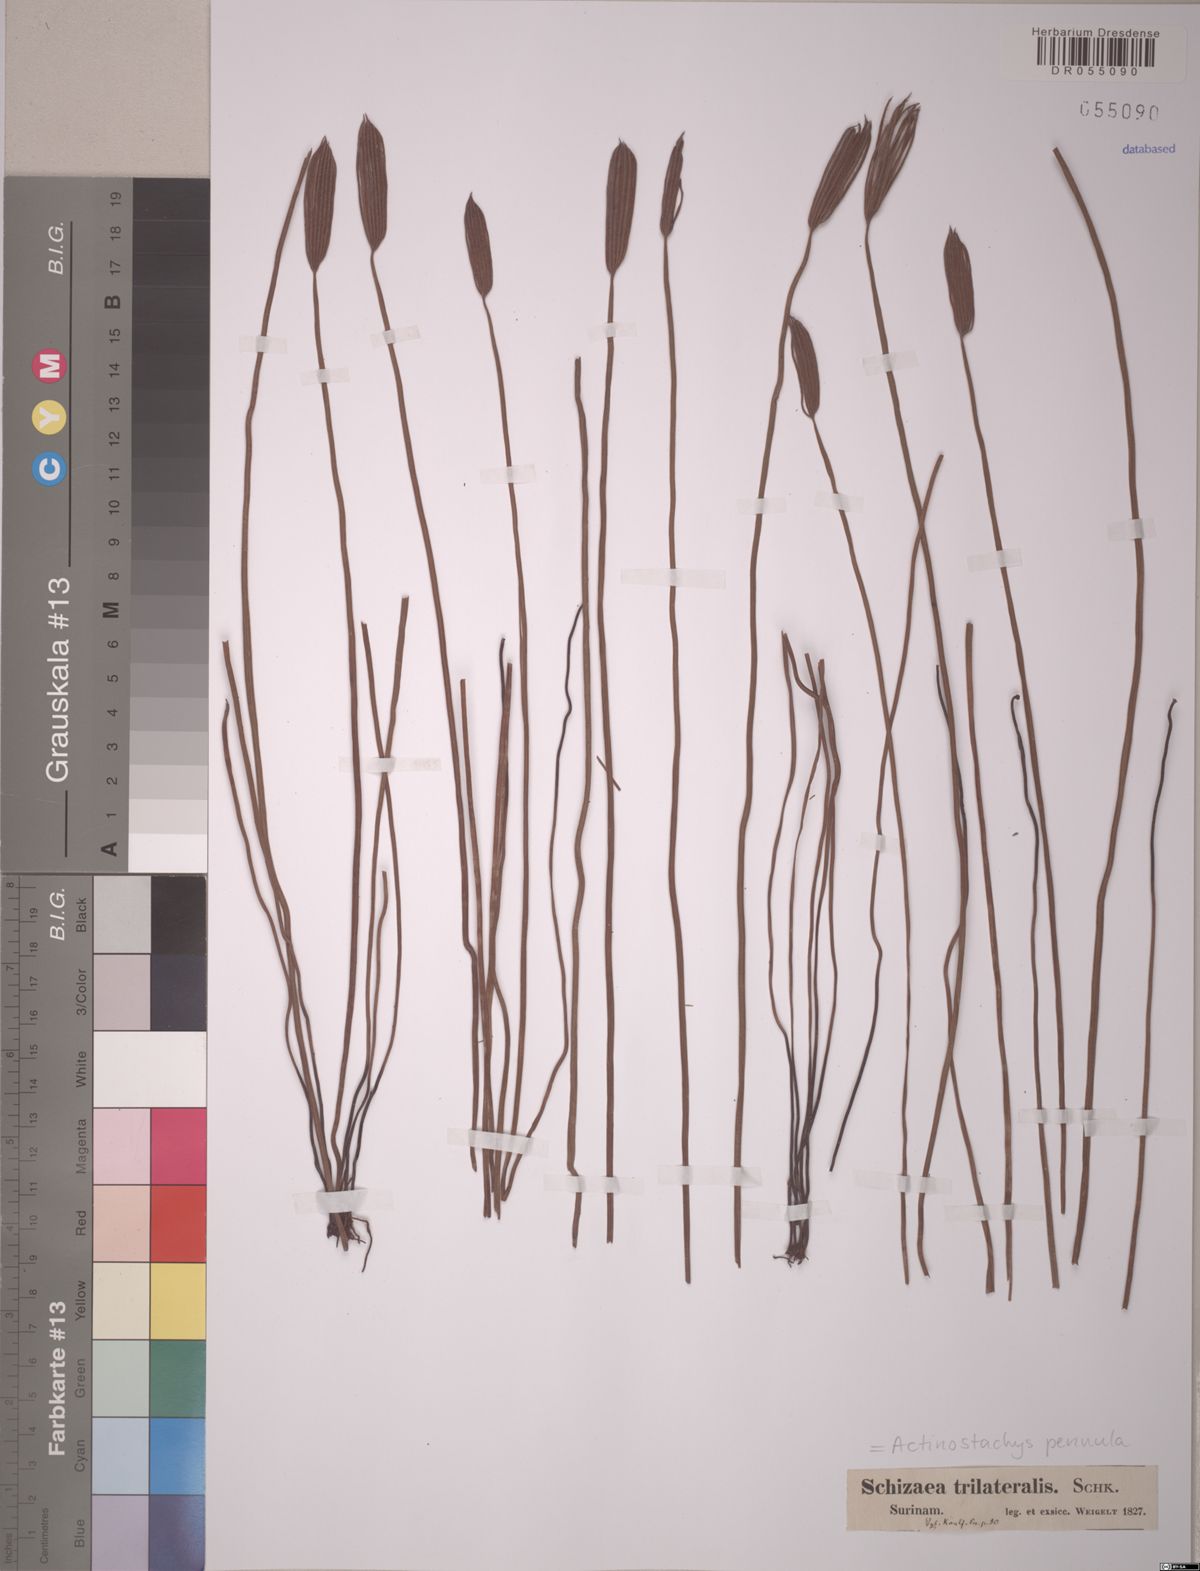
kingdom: Plantae
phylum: Tracheophyta
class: Polypodiopsida
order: Schizaeales
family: Schizaeaceae
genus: Actinostachys
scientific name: Actinostachys pennula
